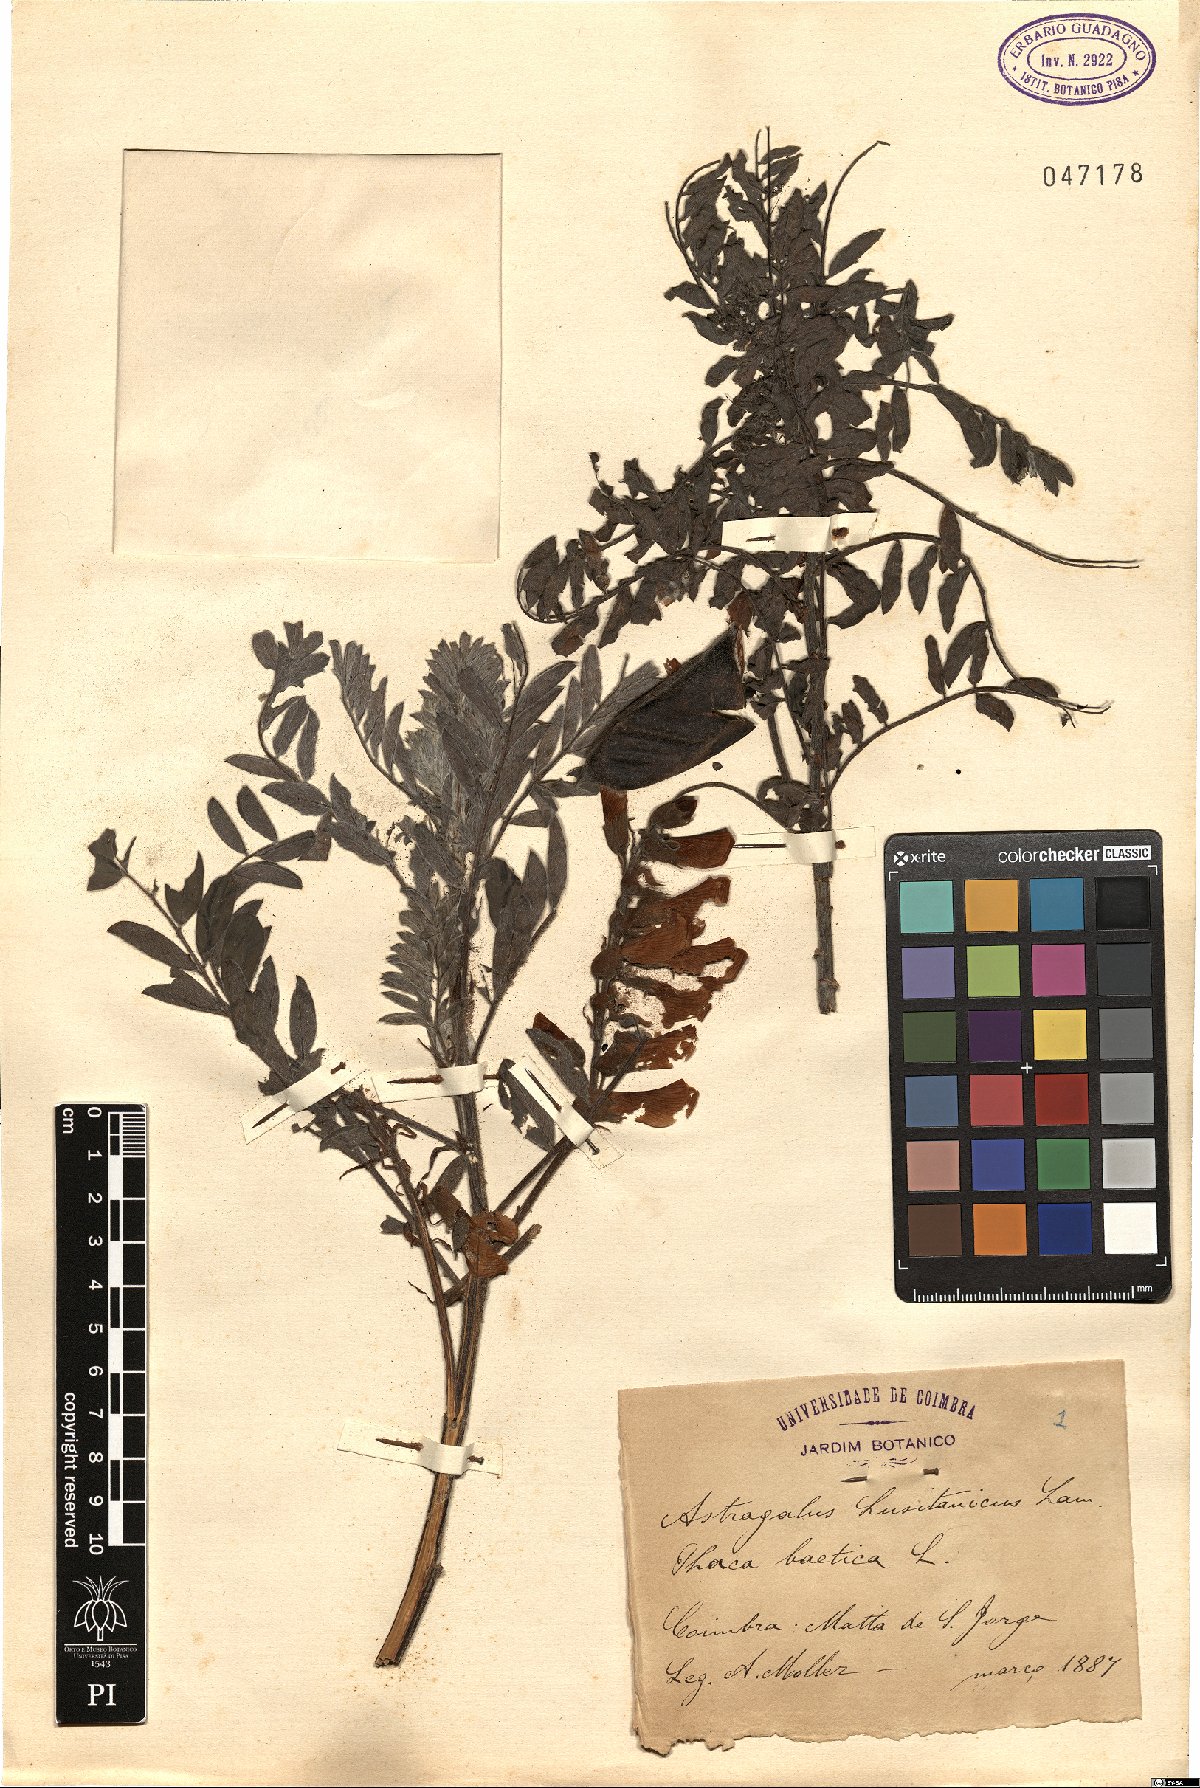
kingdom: Plantae
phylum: Tracheophyta
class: Magnoliopsida
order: Fabales
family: Fabaceae
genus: Erophaca
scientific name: Erophaca baetica
